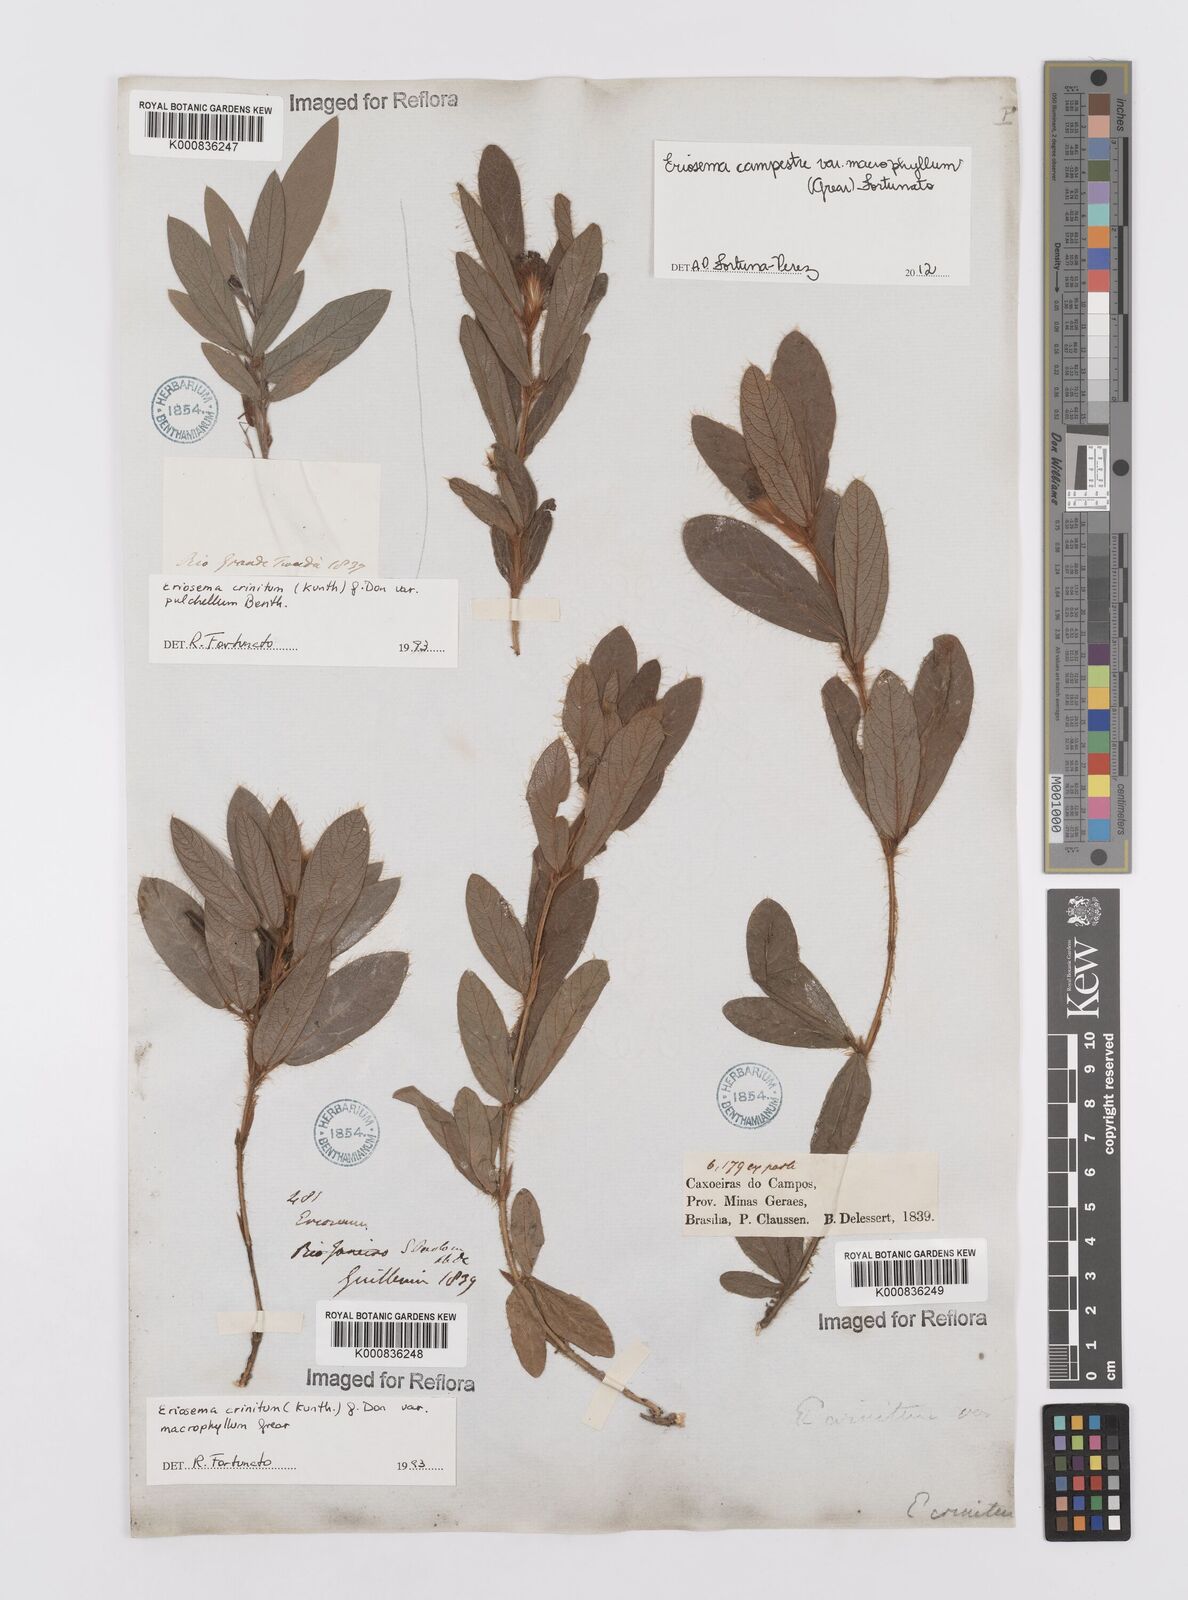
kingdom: Plantae
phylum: Tracheophyta
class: Magnoliopsida
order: Fabales
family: Fabaceae
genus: Eriosema
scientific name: Eriosema campestre
